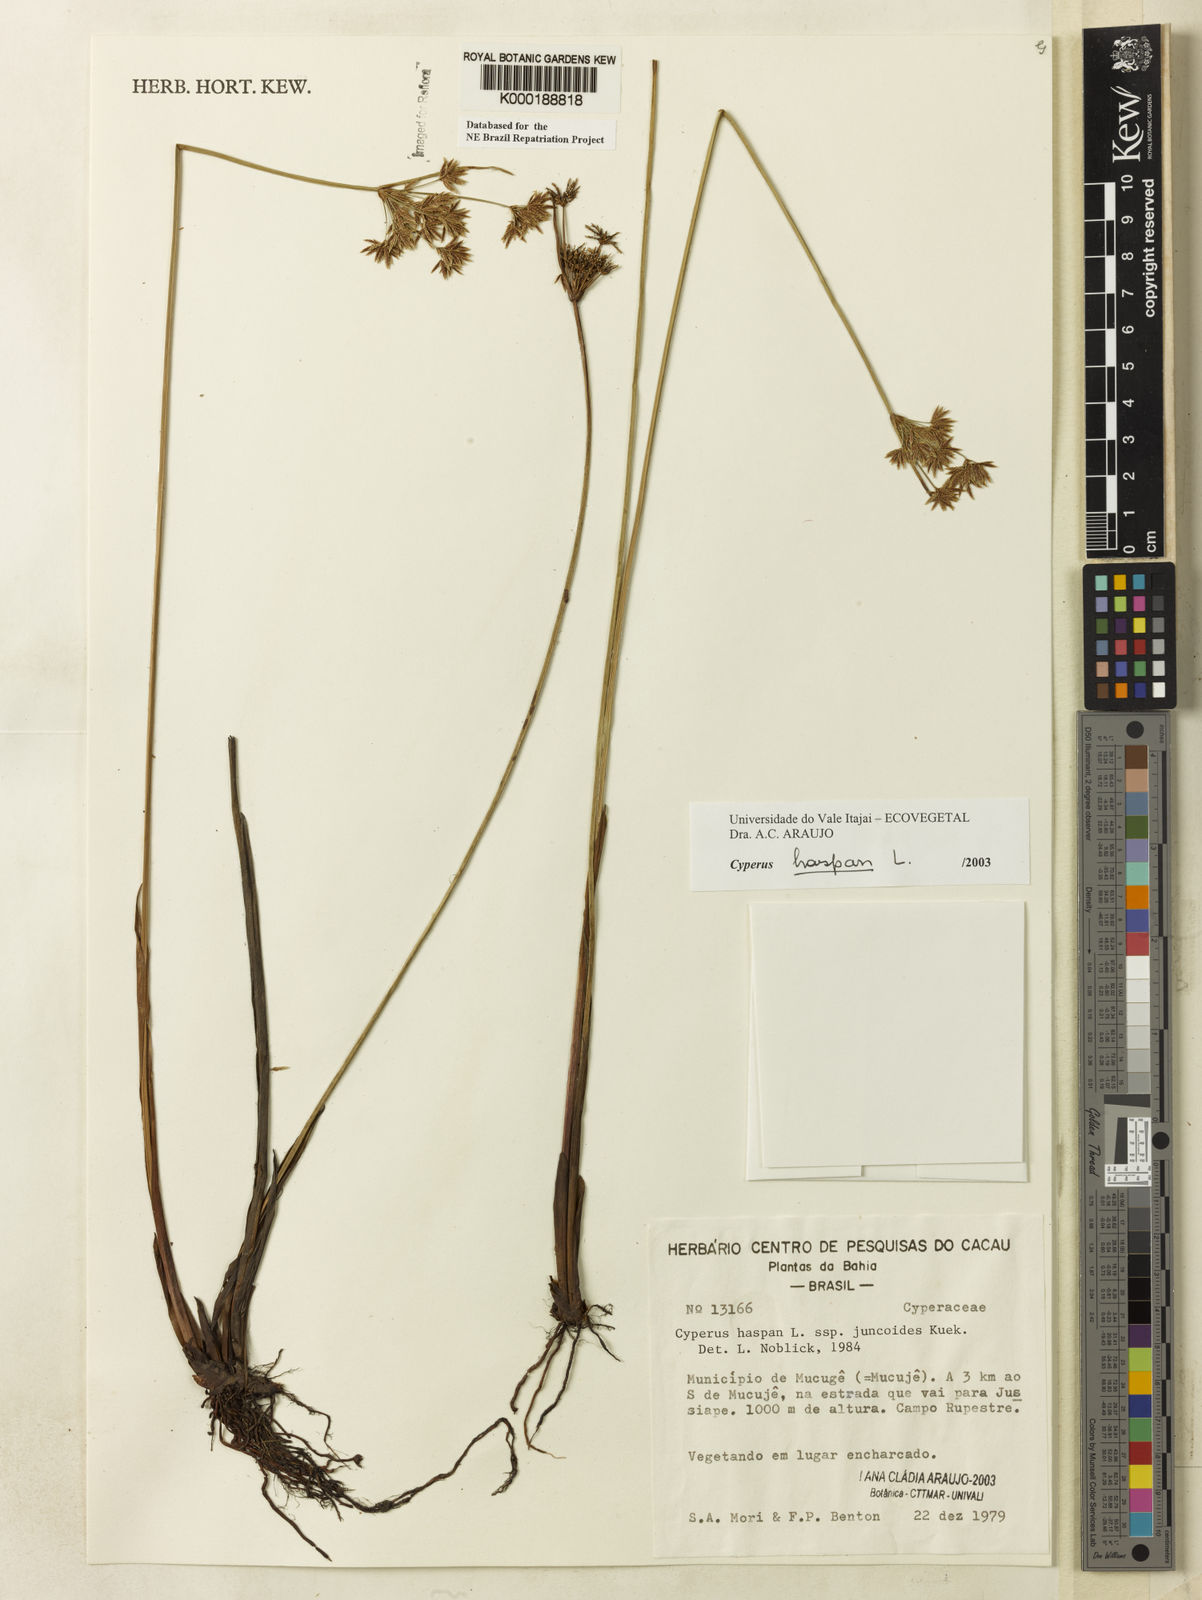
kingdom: Plantae
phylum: Tracheophyta
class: Liliopsida
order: Poales
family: Cyperaceae
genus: Cyperus
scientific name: Cyperus haspan
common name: Haspan flatsedge
